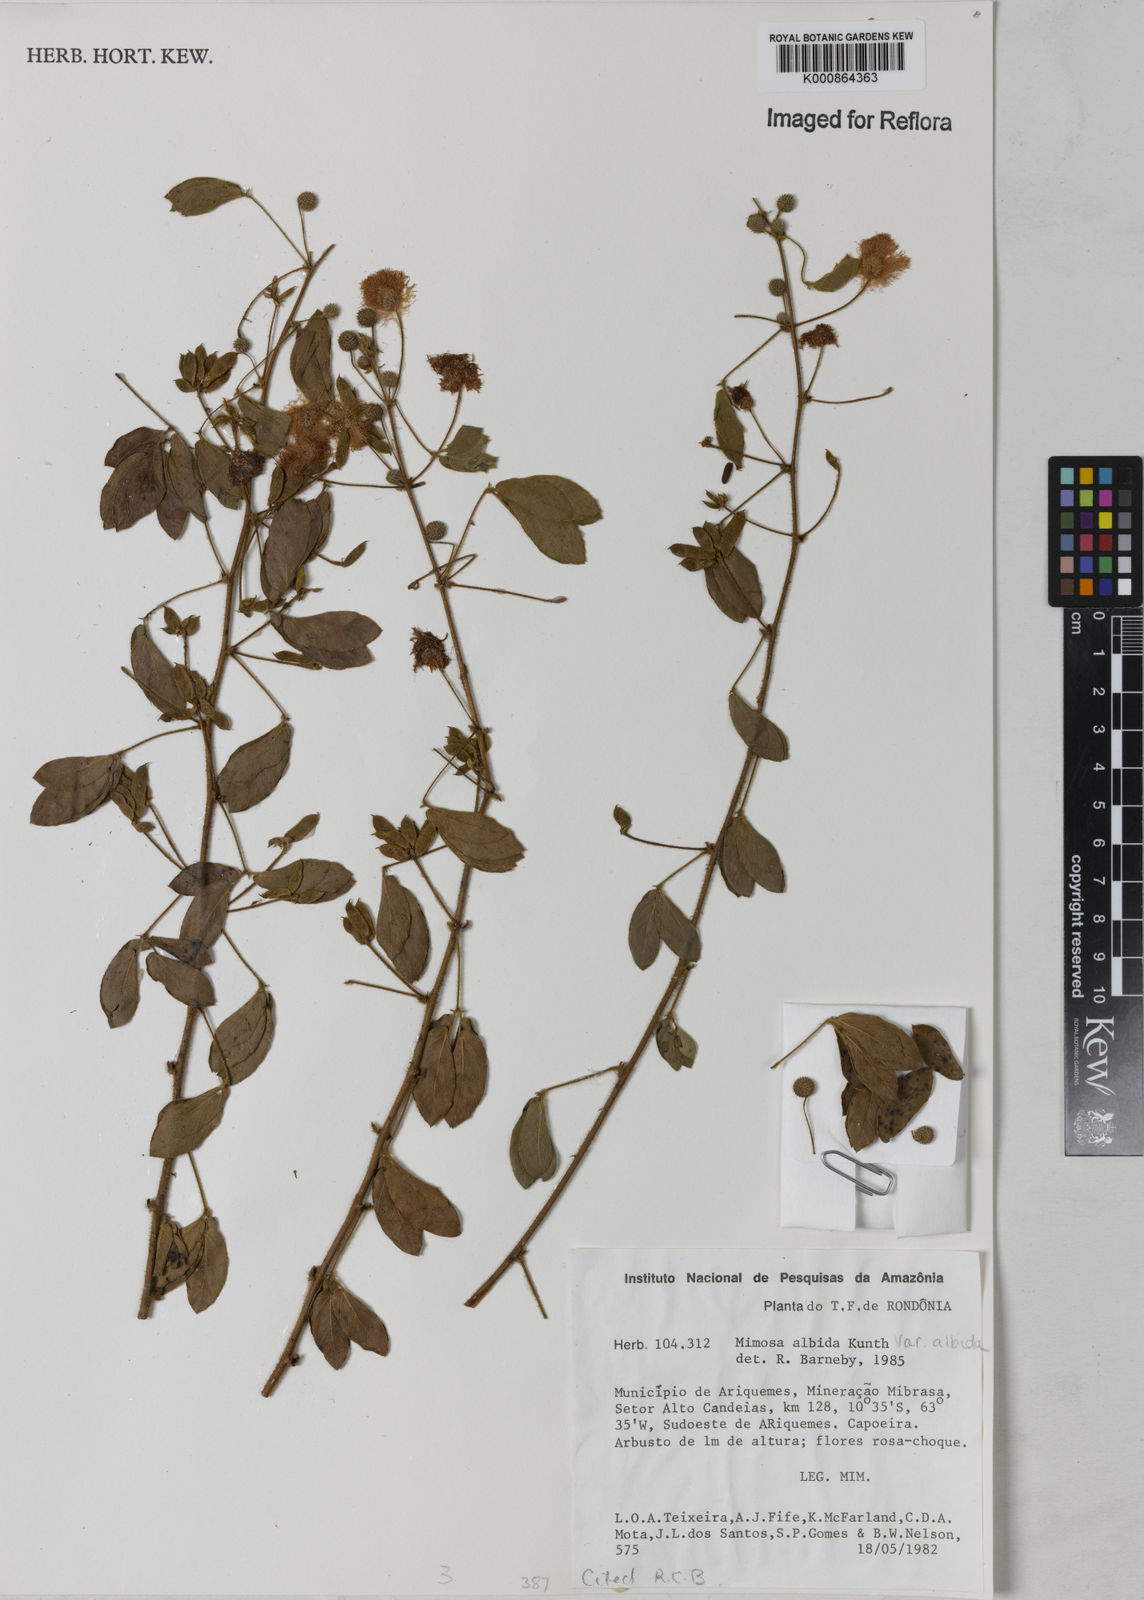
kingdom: Plantae
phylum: Tracheophyta
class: Magnoliopsida
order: Fabales
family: Fabaceae
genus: Mimosa
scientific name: Mimosa albida
